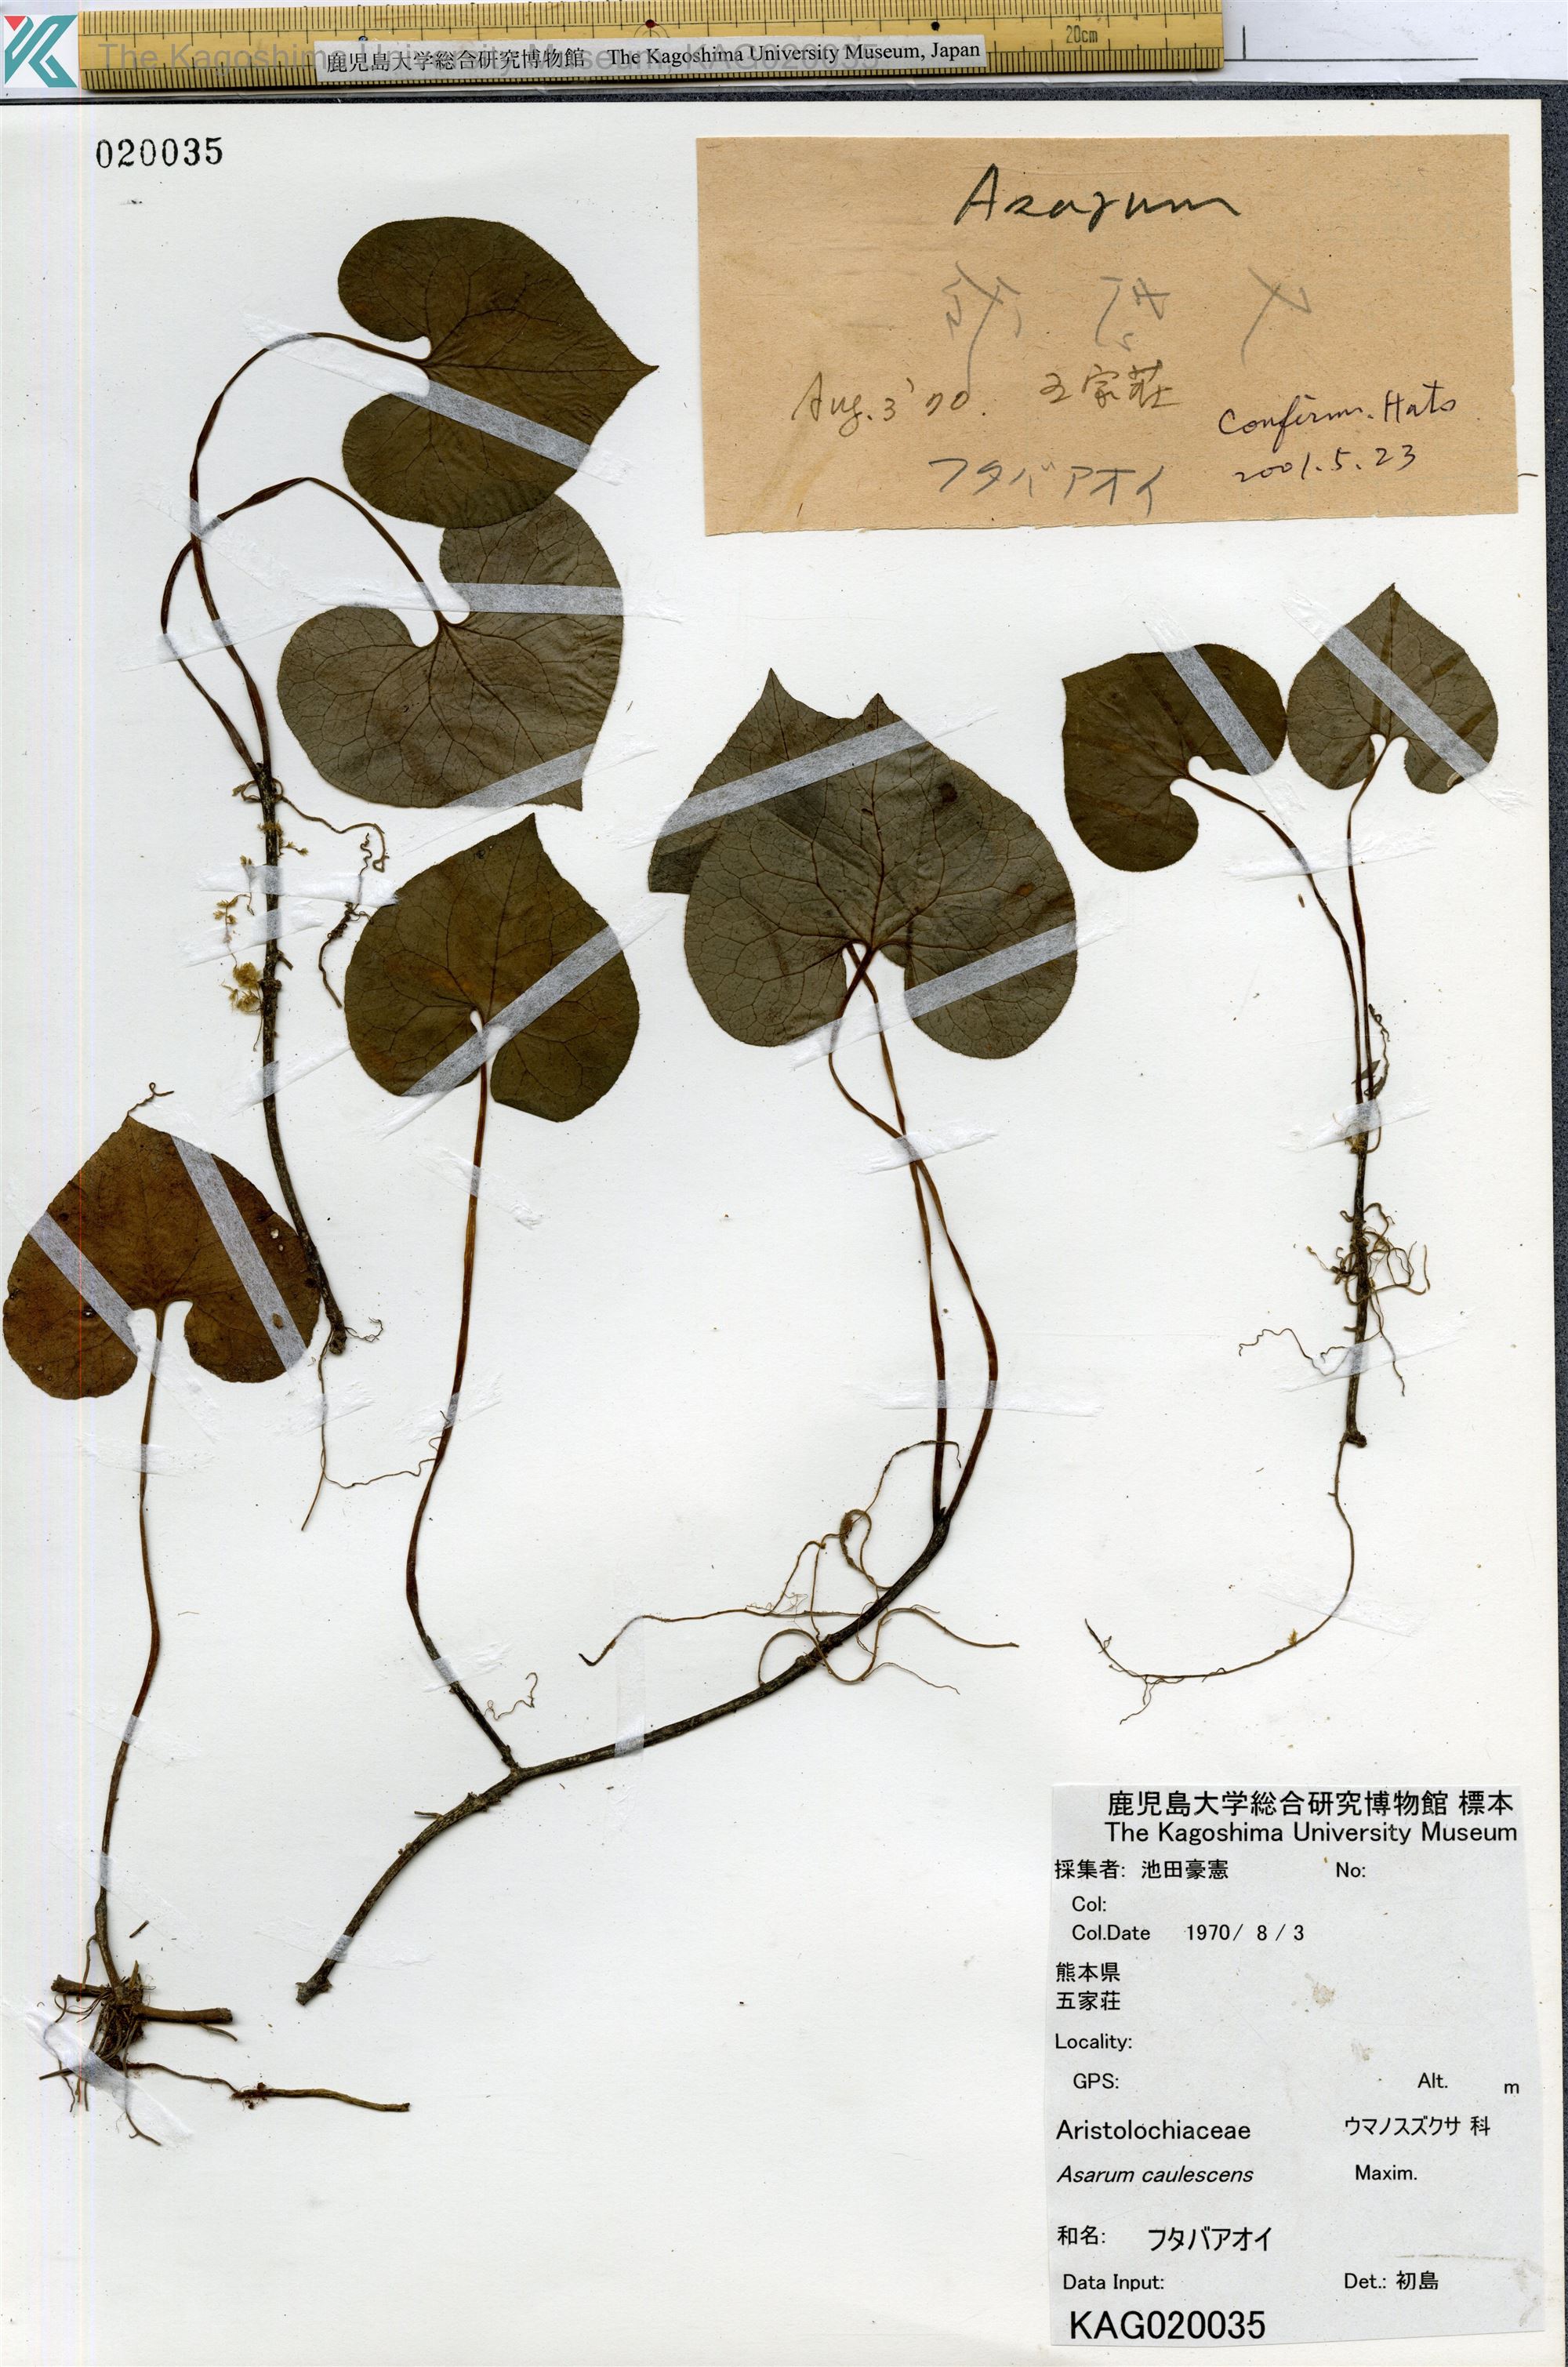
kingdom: Plantae
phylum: Tracheophyta
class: Magnoliopsida
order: Piperales
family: Aristolochiaceae
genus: Asarum
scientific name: Asarum caulescens
